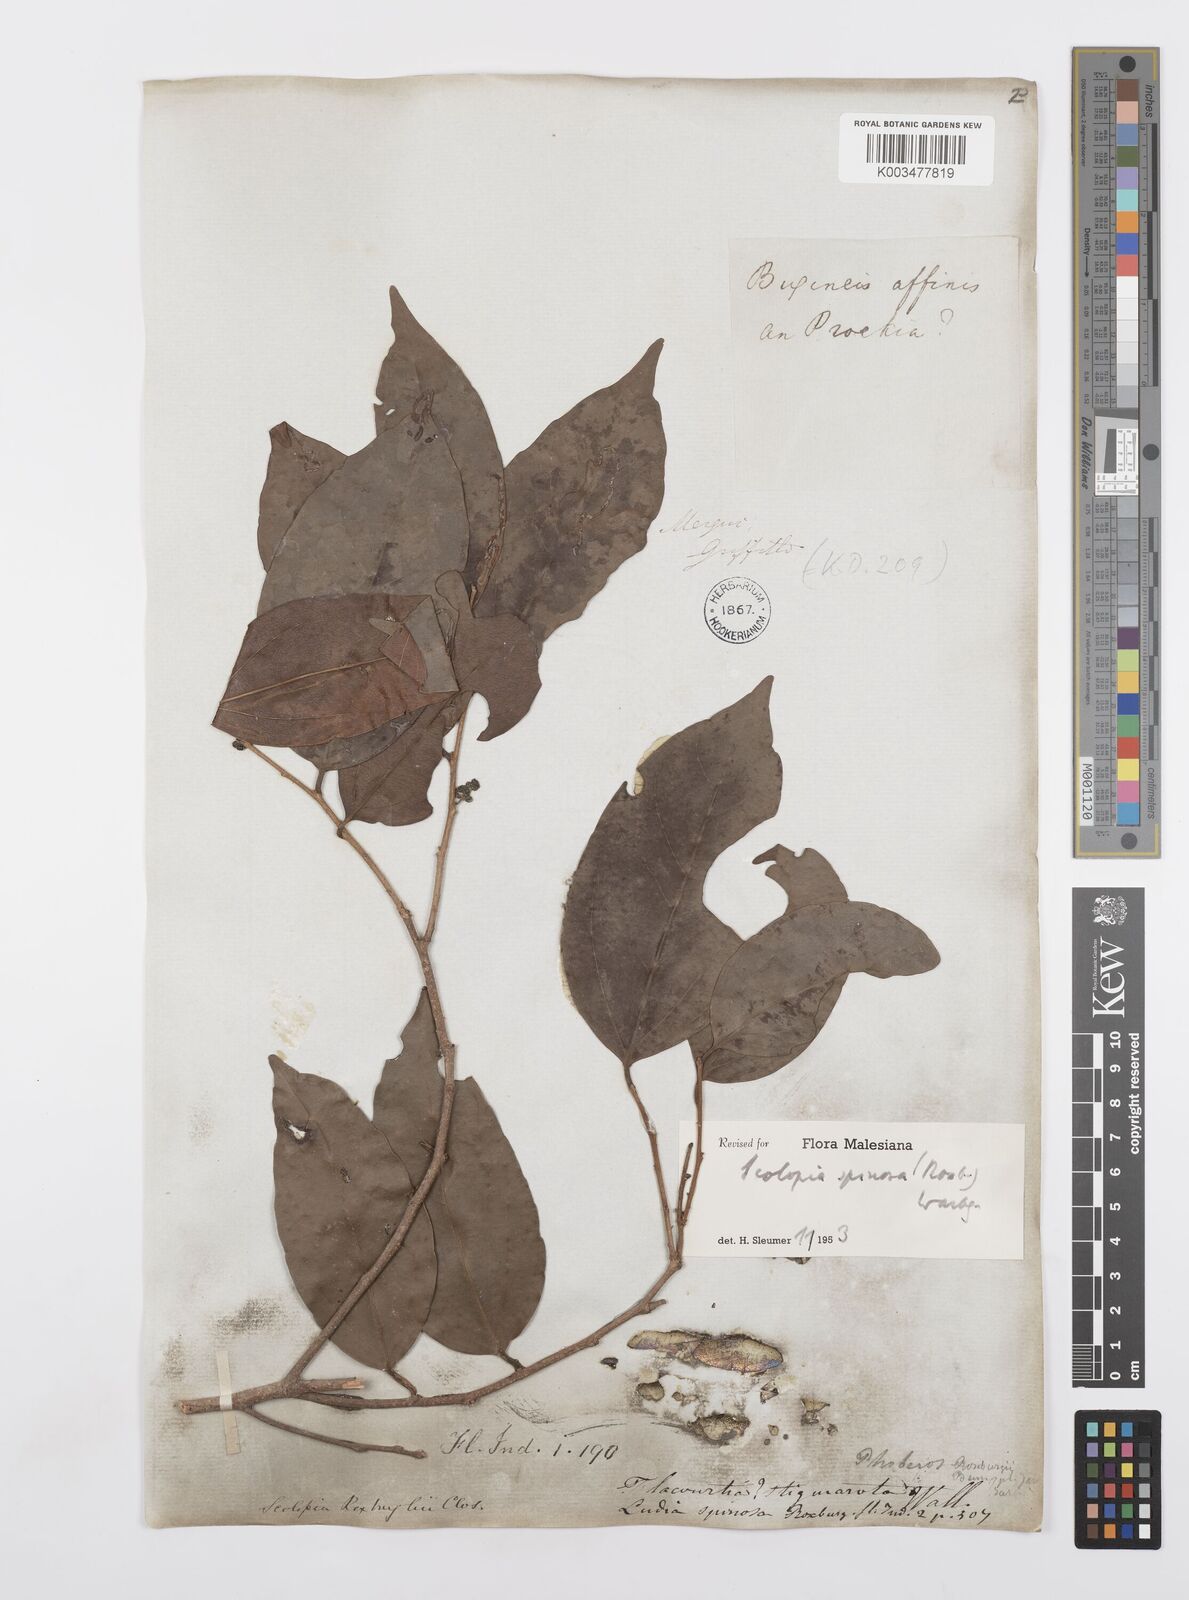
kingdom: Plantae
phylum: Tracheophyta
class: Magnoliopsida
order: Malpighiales
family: Salicaceae
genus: Scolopia
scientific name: Scolopia spinosa
